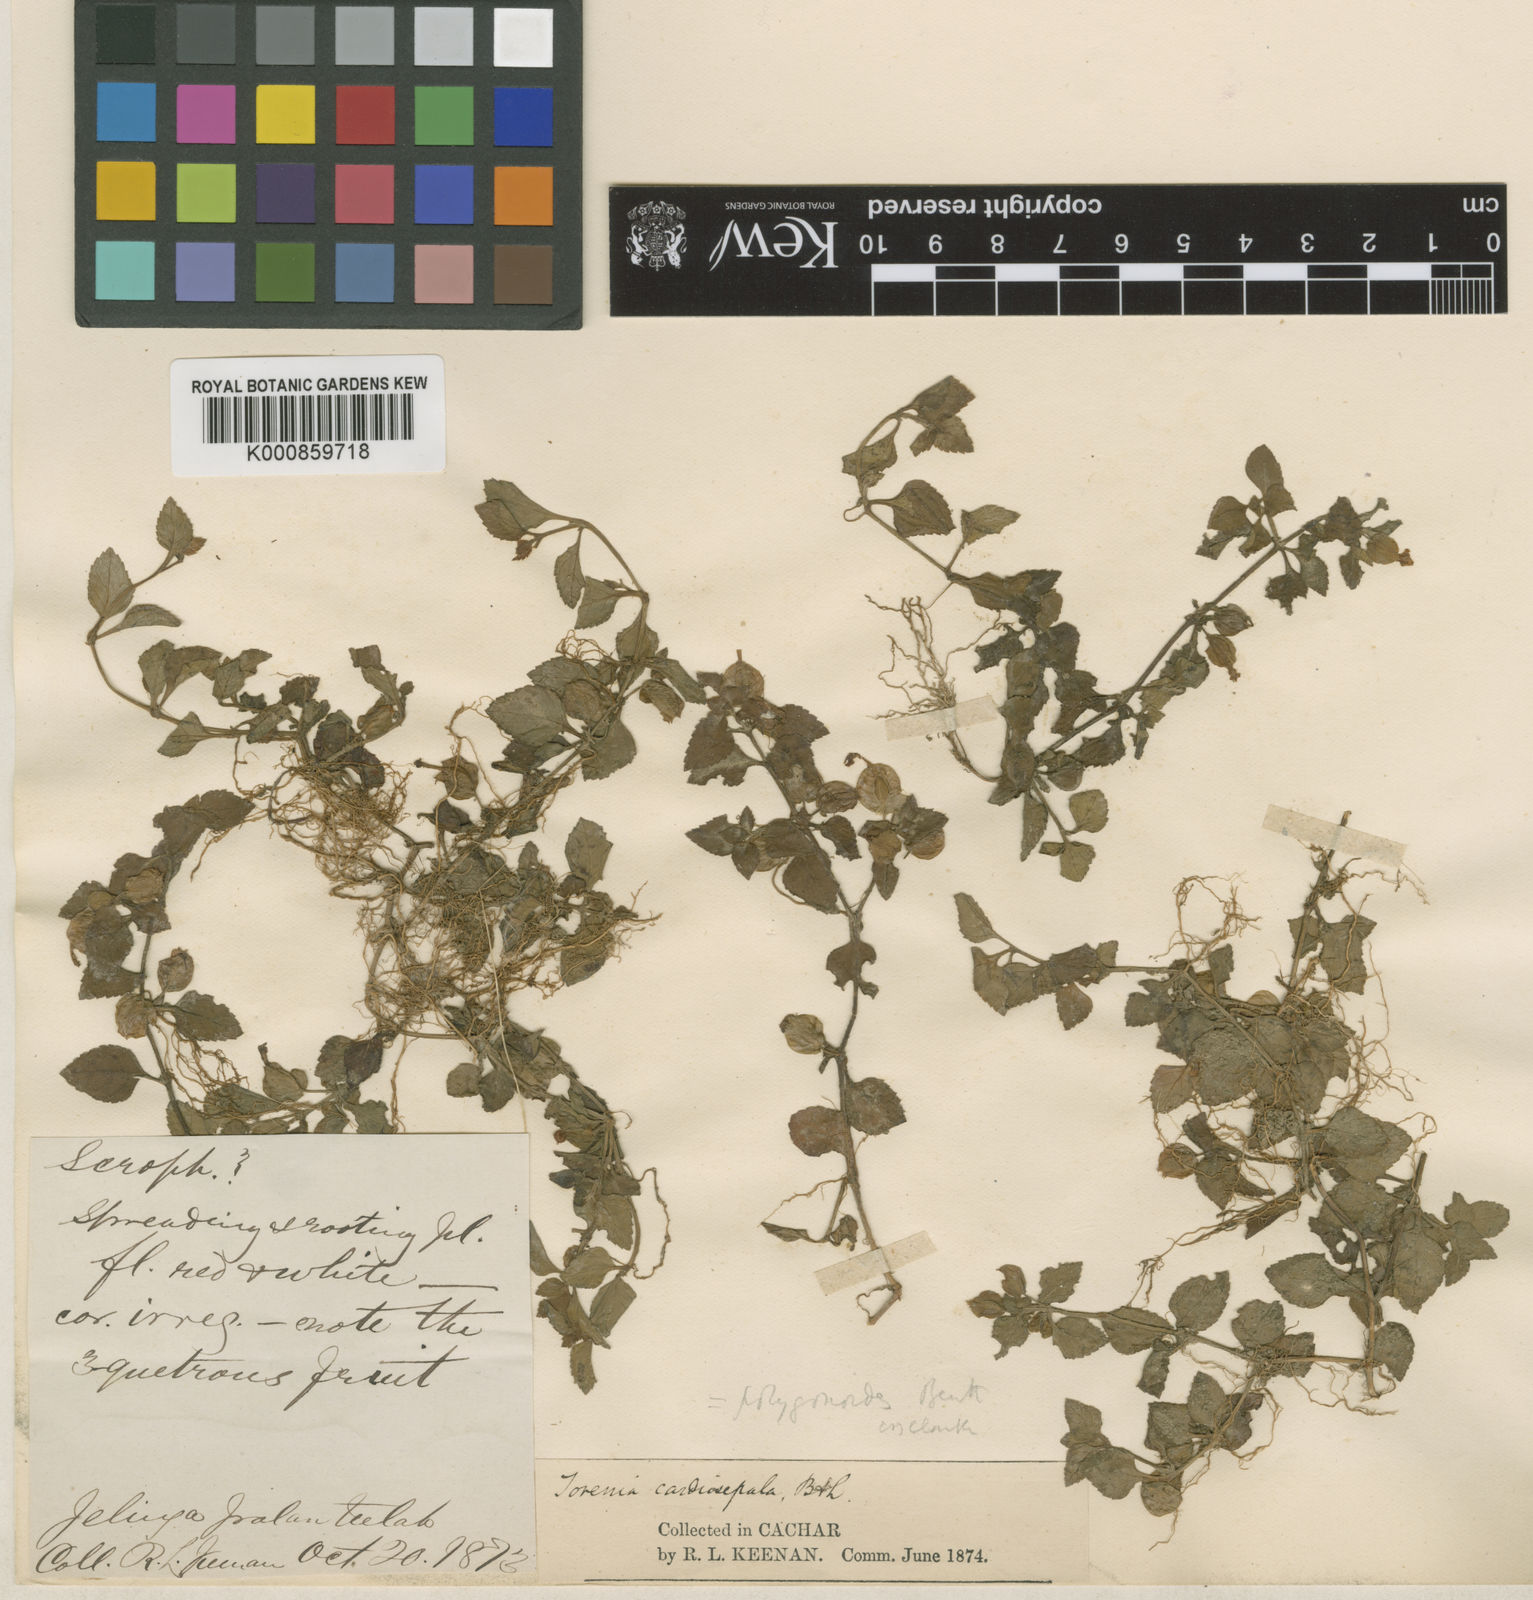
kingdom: Plantae
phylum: Tracheophyta
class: Magnoliopsida
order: Lamiales
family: Linderniaceae
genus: Legazpia
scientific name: Legazpia polygonoides
